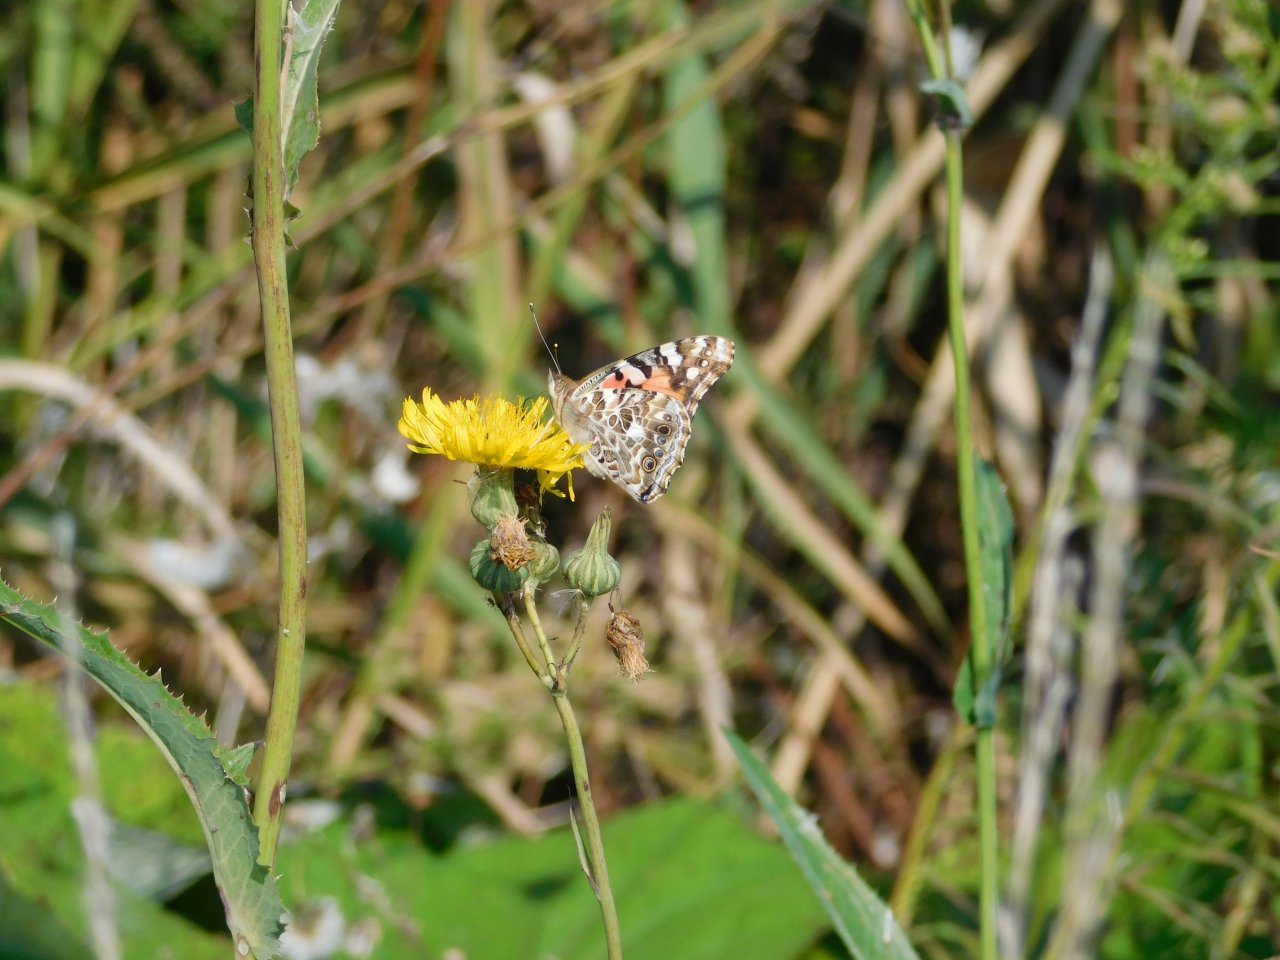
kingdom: Animalia
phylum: Arthropoda
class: Insecta
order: Lepidoptera
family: Nymphalidae
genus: Vanessa
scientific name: Vanessa cardui
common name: Painted Lady
